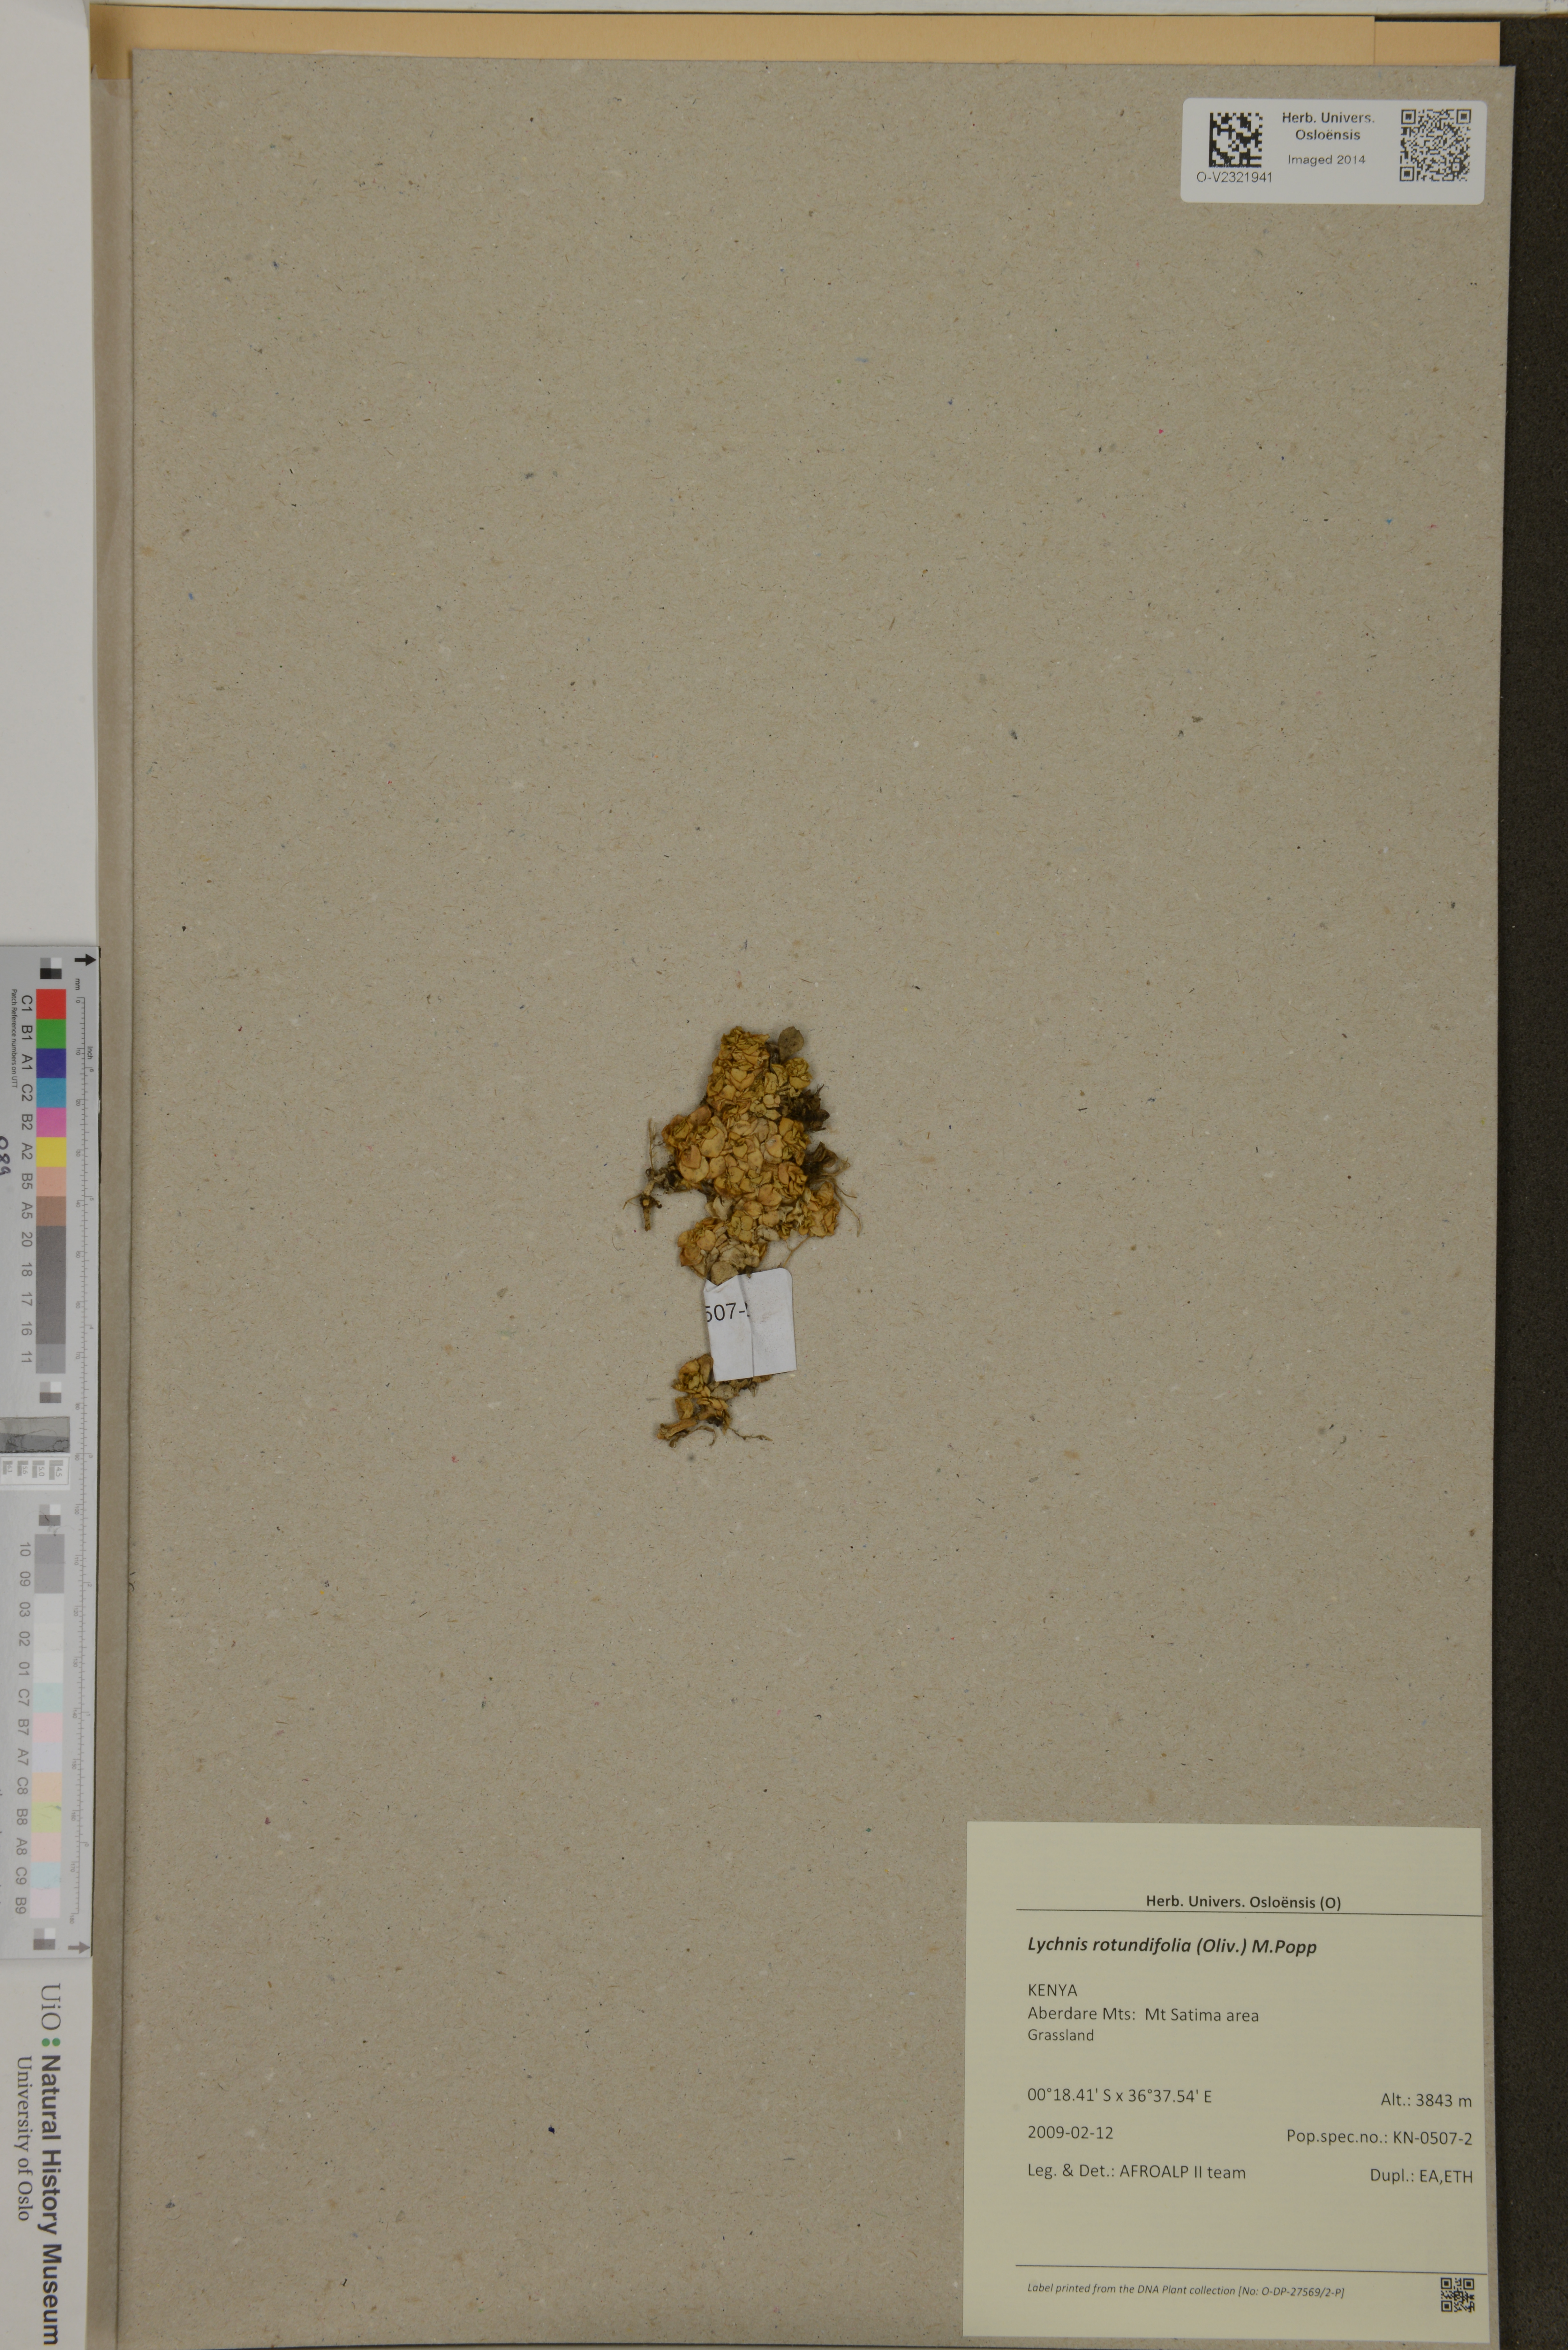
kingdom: Plantae
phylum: Tracheophyta
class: Magnoliopsida
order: Caryophyllales
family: Caryophyllaceae
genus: Silene
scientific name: Silene afromontana
